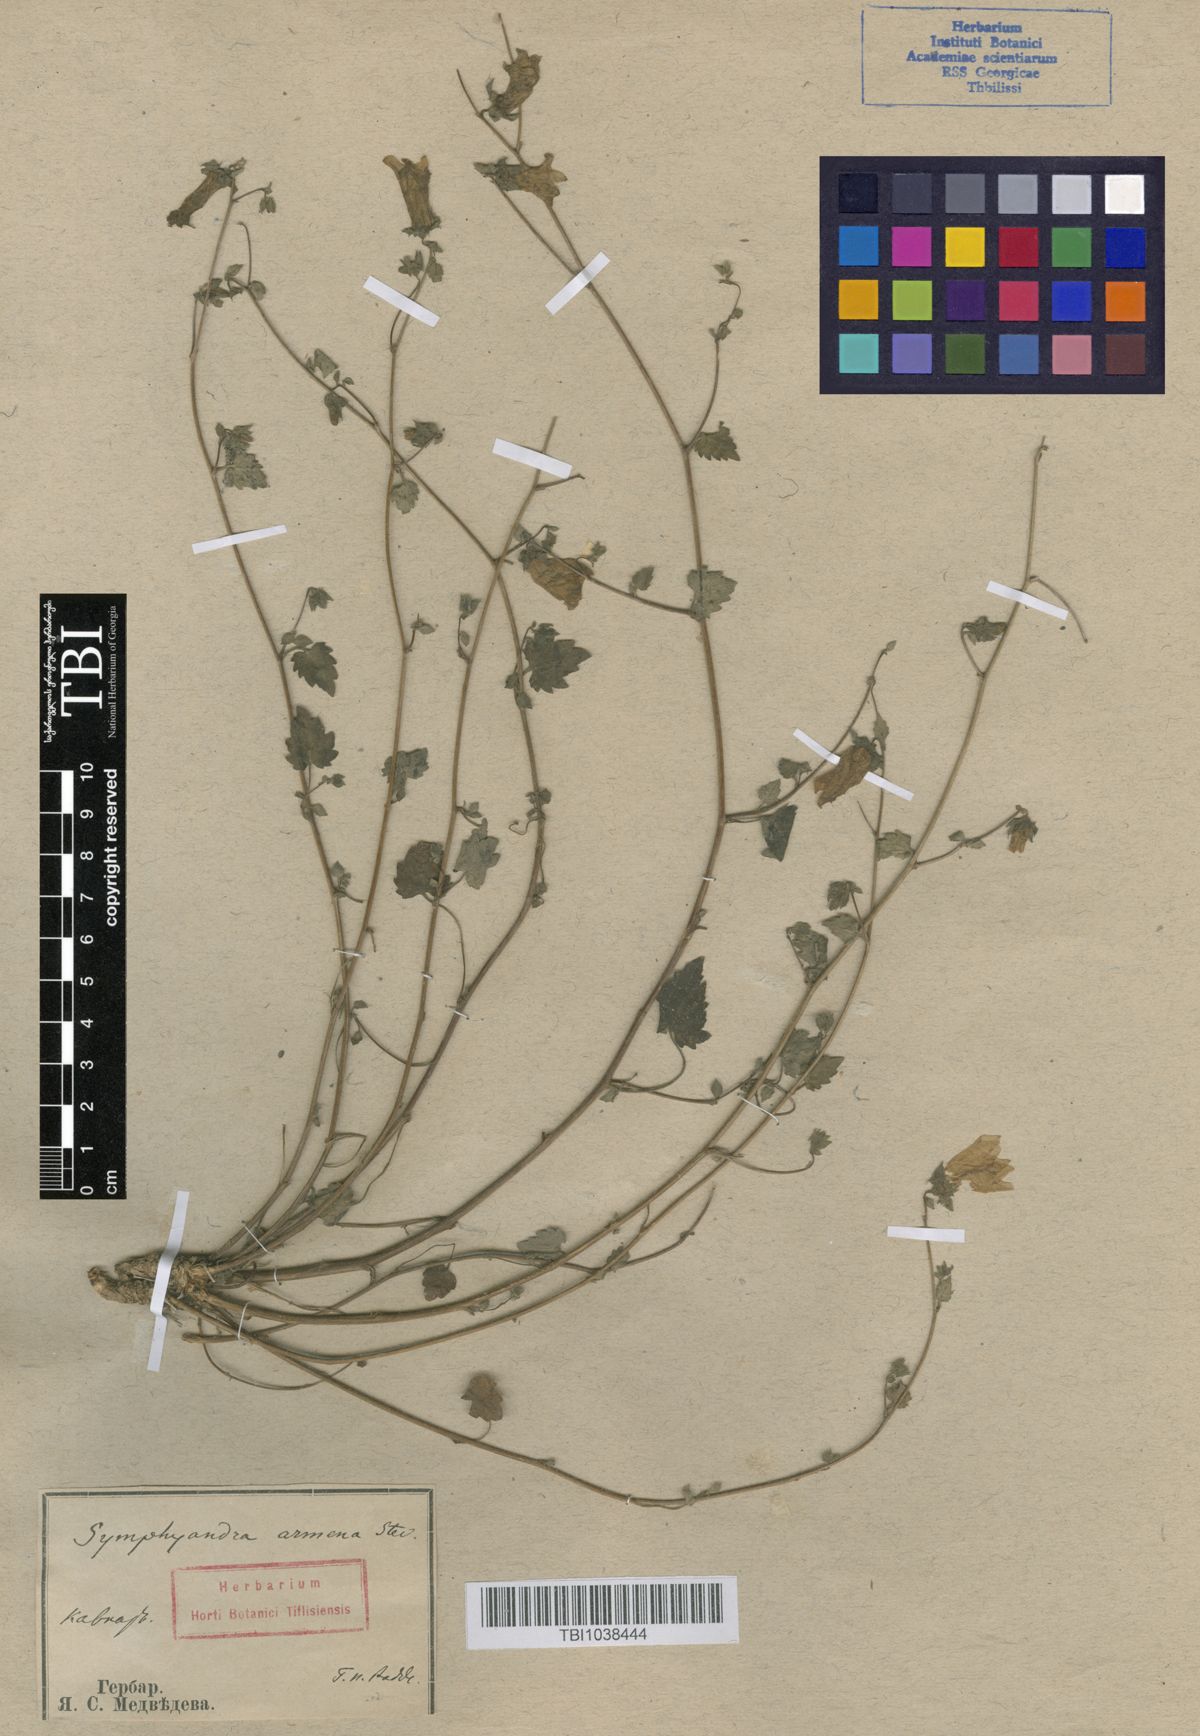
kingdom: Plantae
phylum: Tracheophyta
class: Magnoliopsida
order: Asterales
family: Campanulaceae
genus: Campanula
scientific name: Campanula armena
